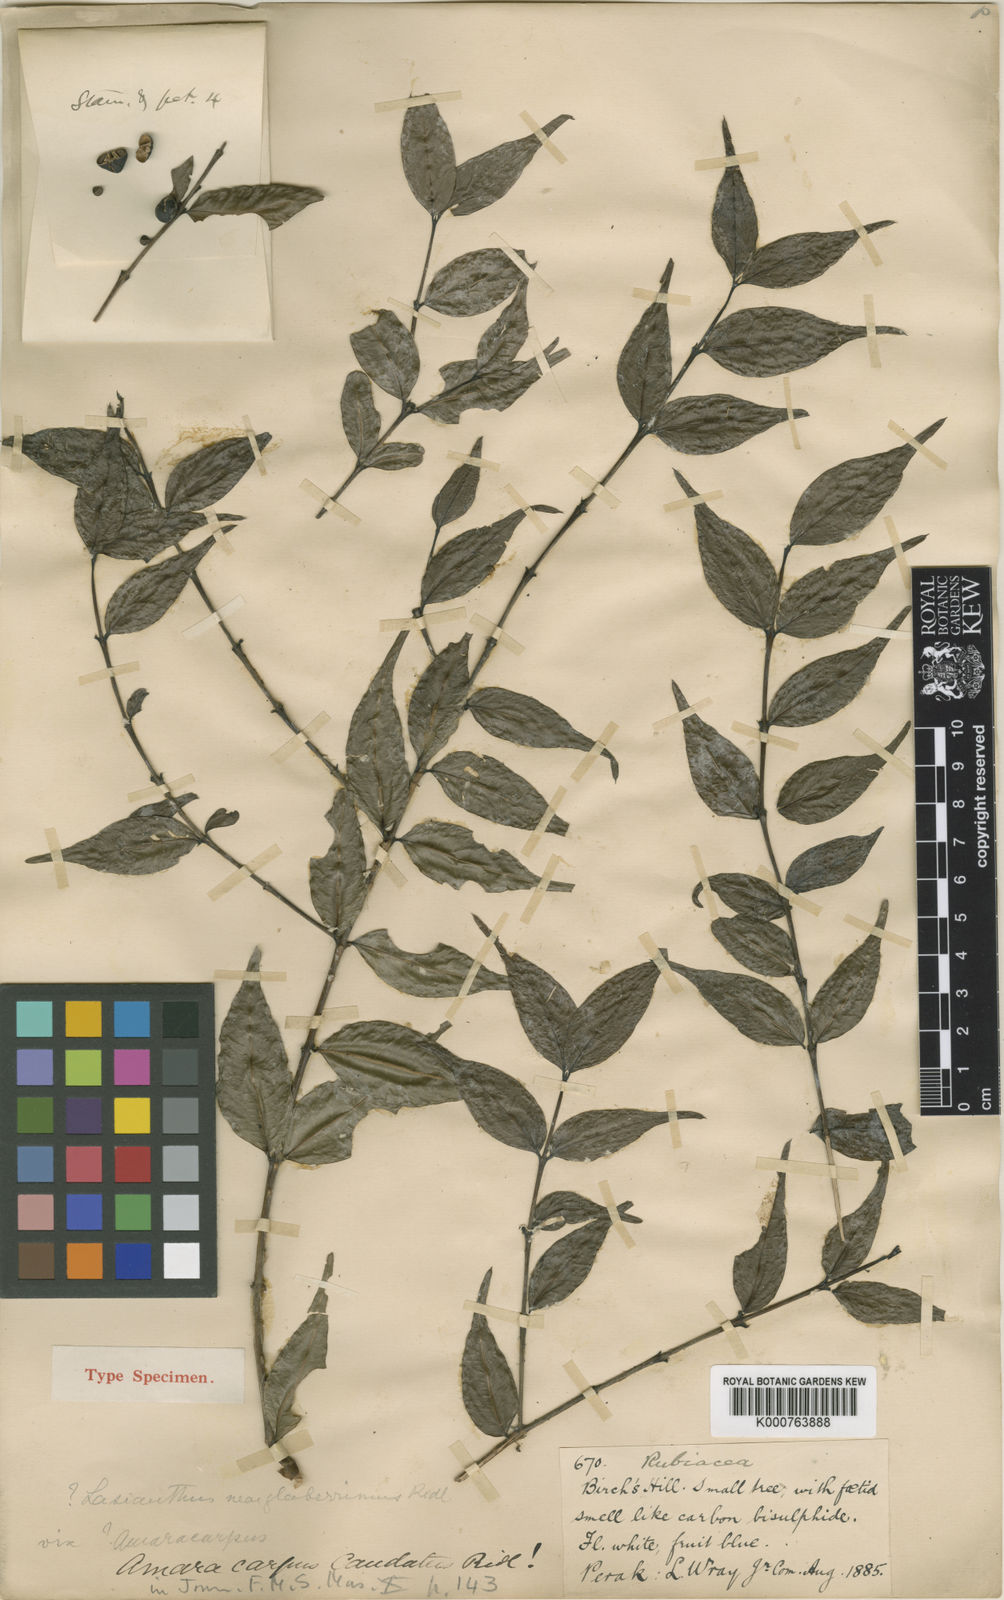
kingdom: Plantae
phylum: Tracheophyta
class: Magnoliopsida
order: Gentianales
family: Rubiaceae
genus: Paralasianthus
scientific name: Paralasianthus lowianus
